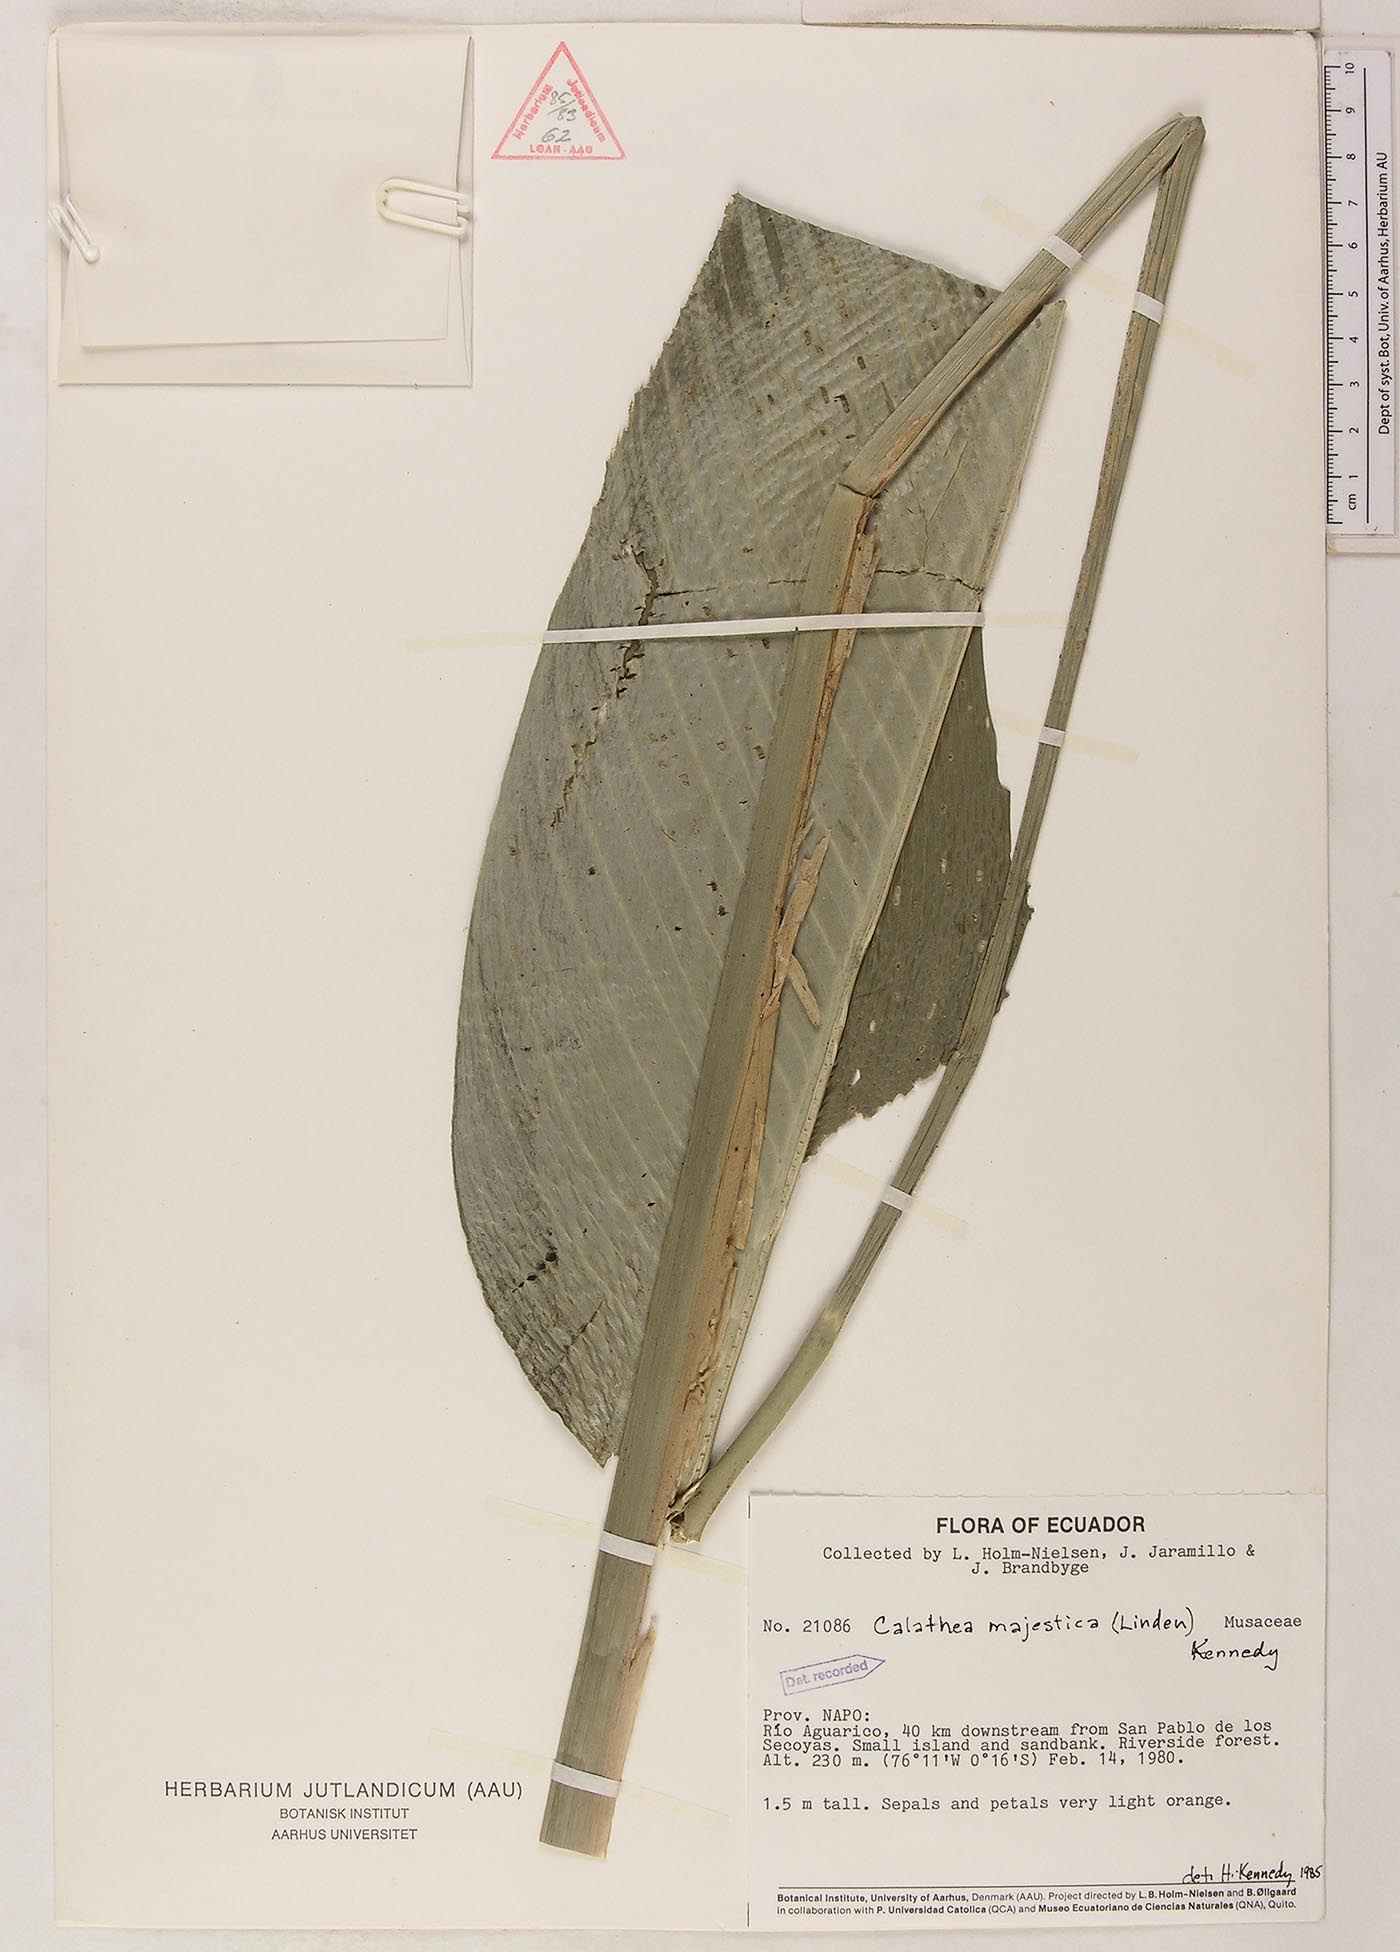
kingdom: Plantae
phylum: Tracheophyta
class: Liliopsida
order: Zingiberales
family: Marantaceae
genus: Goeppertia
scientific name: Goeppertia majestica
